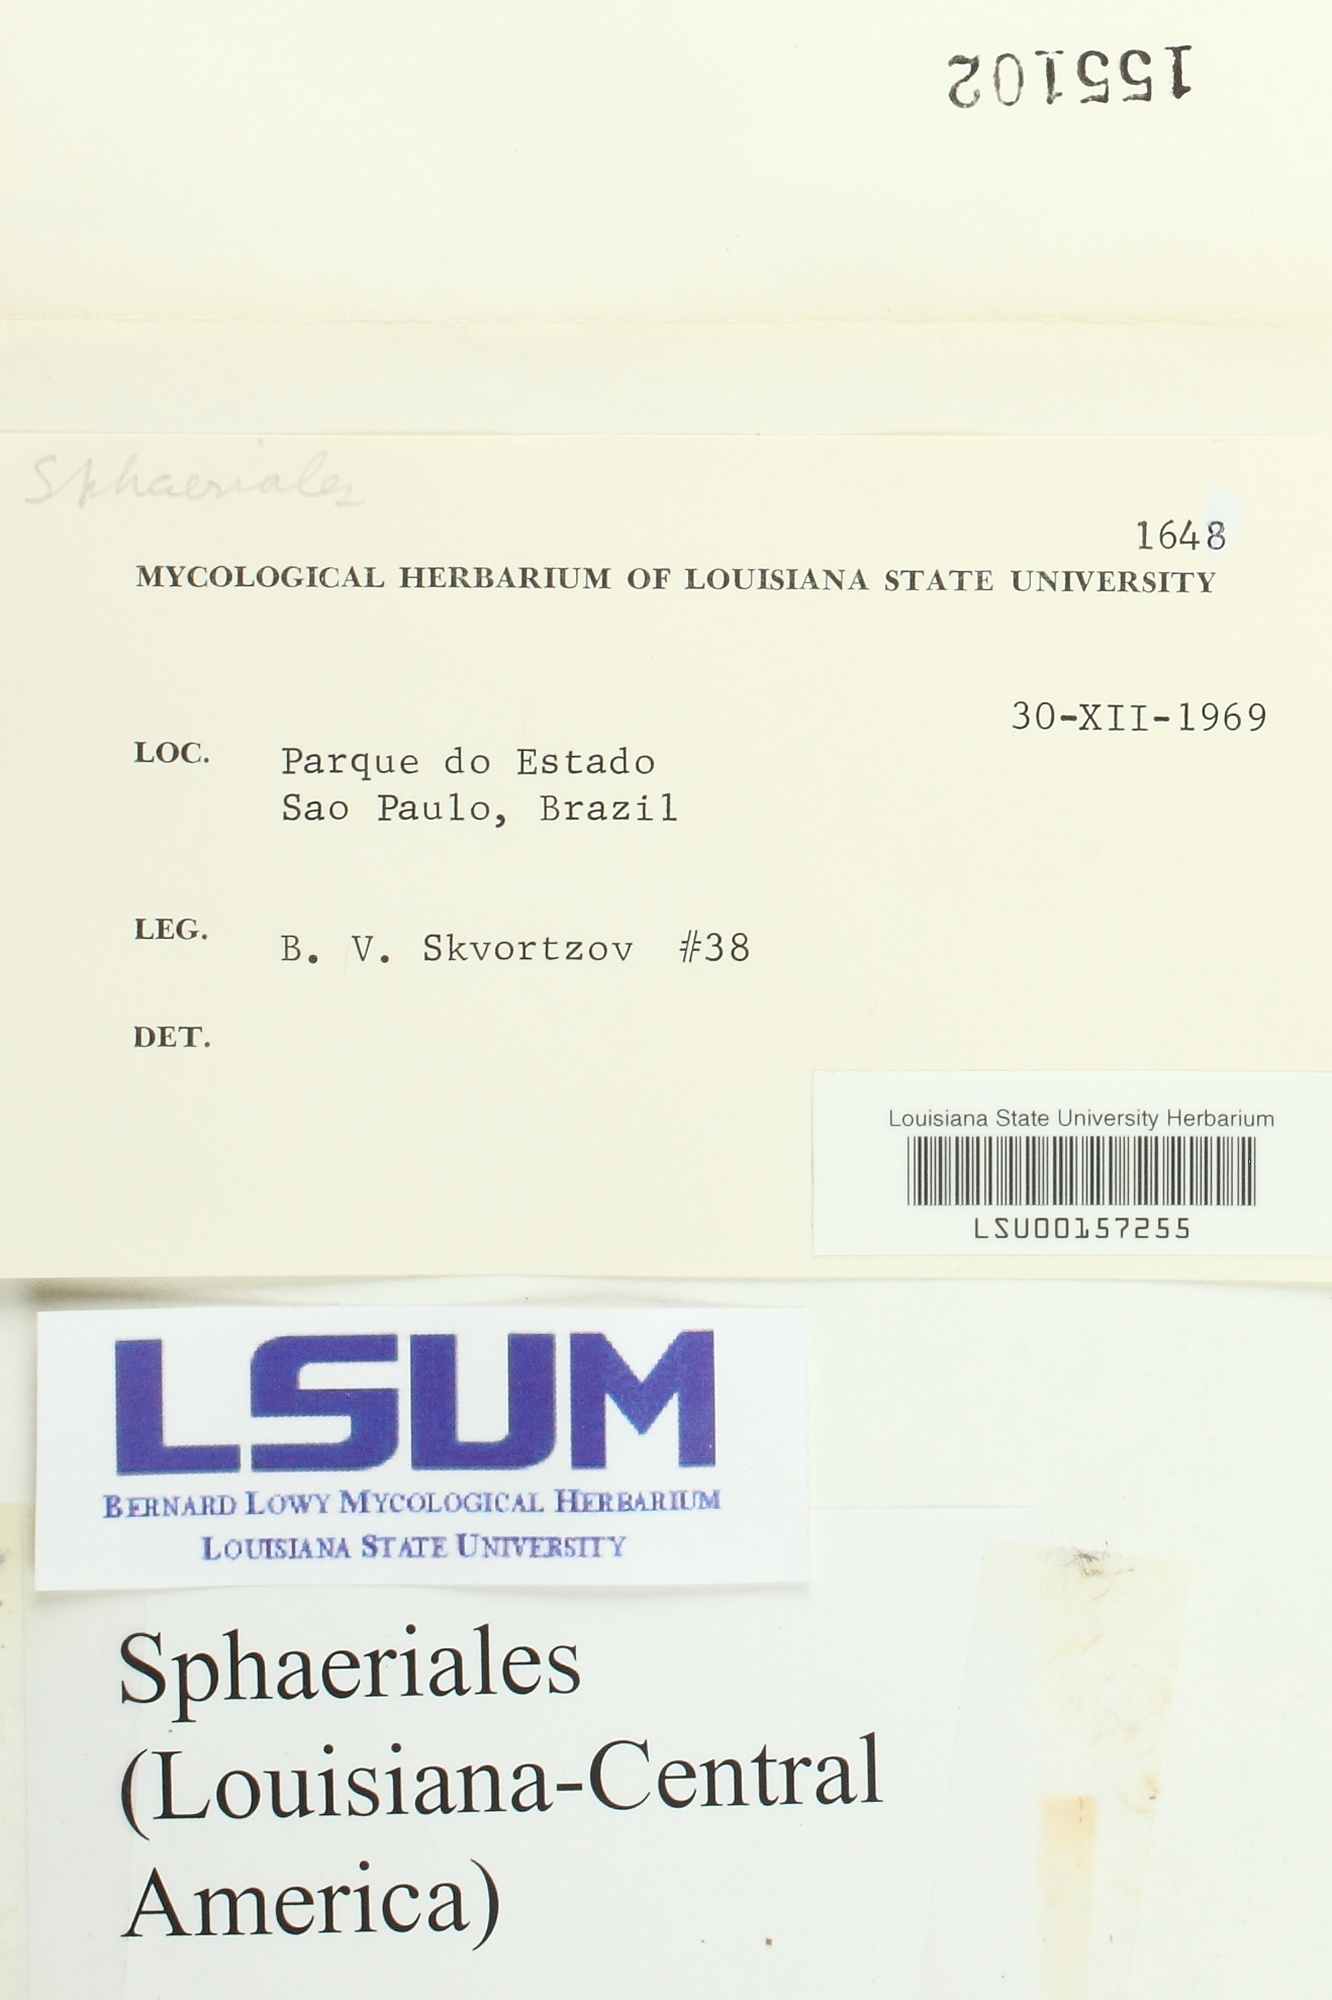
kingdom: Fungi
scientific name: Fungi
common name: Fungi
